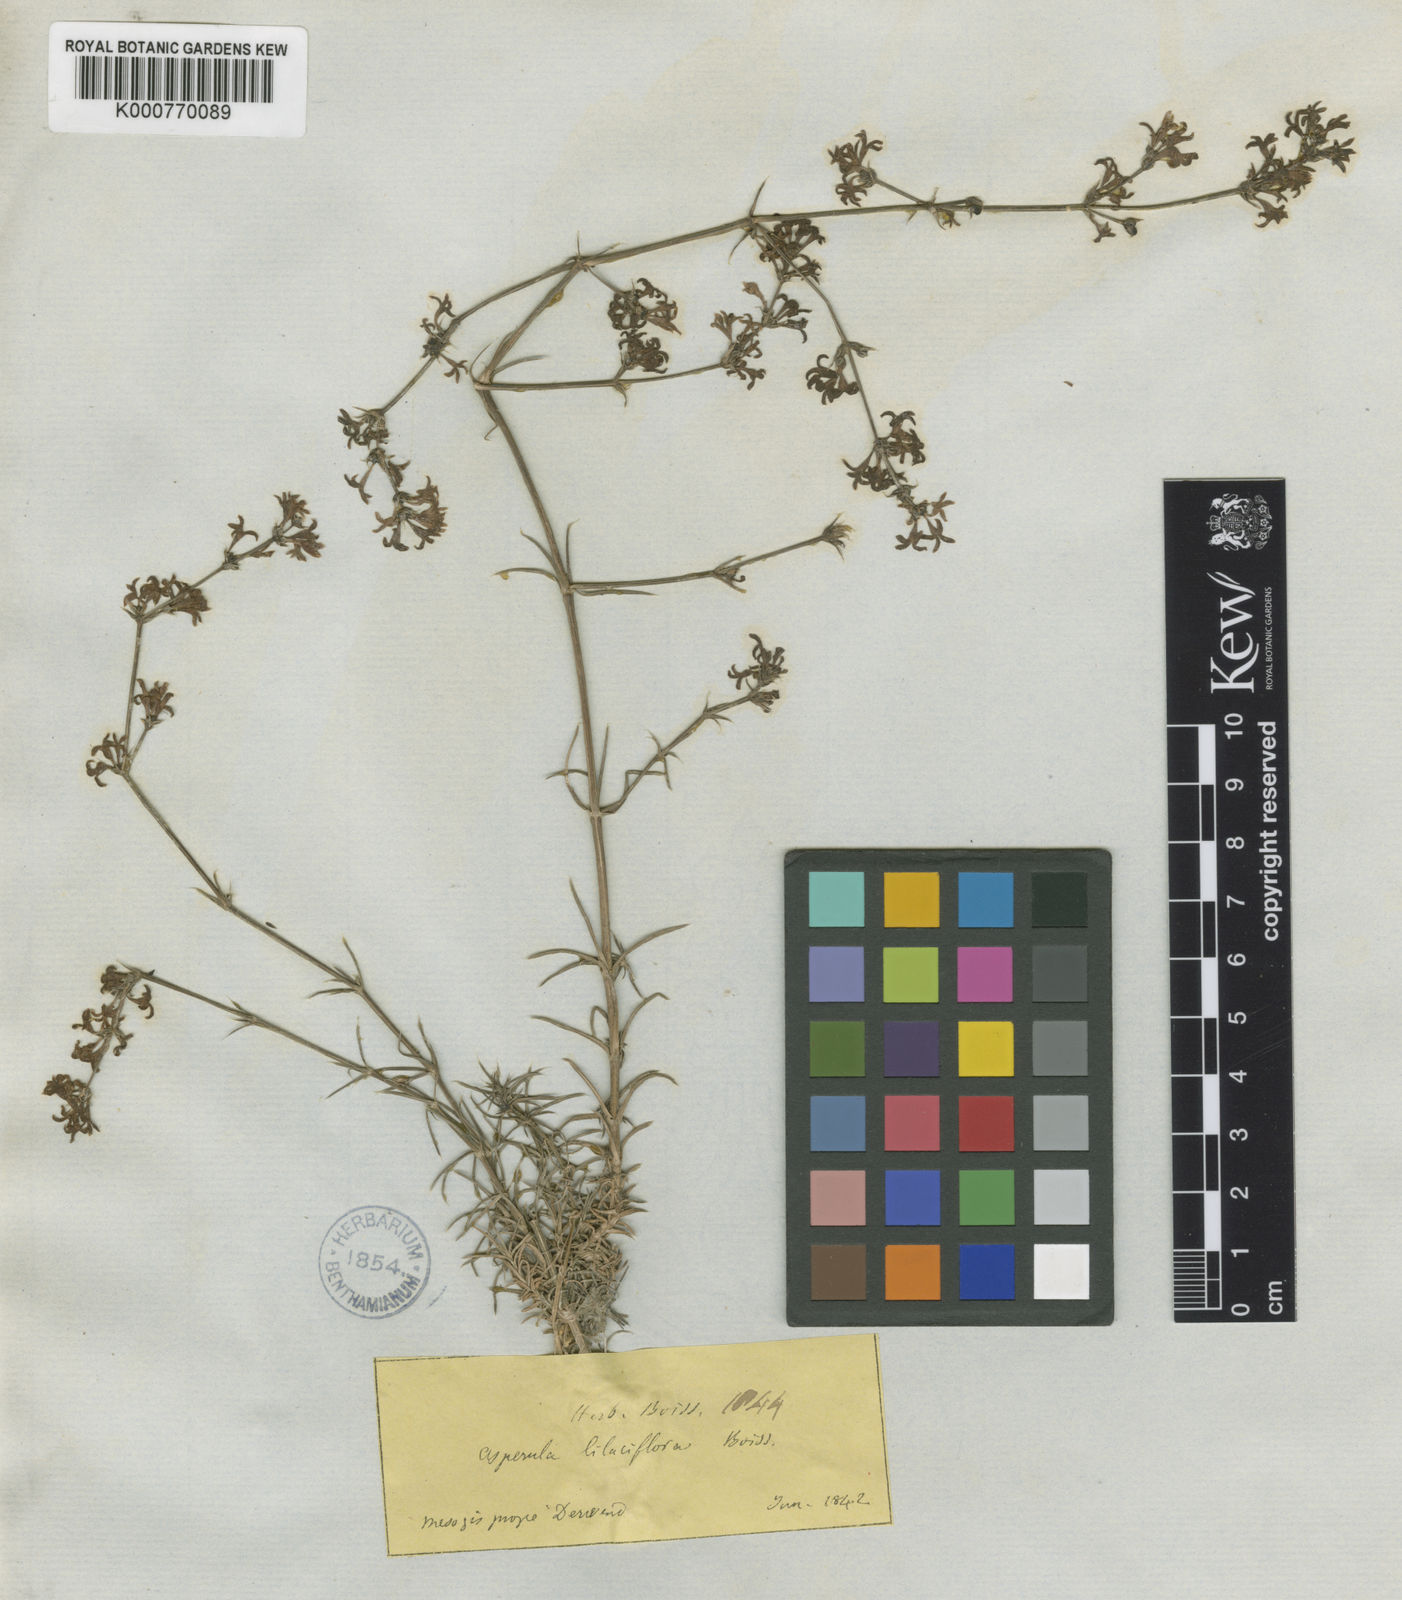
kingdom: Plantae
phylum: Tracheophyta
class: Magnoliopsida
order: Gentianales
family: Rubiaceae
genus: Cynanchica
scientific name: Cynanchica lilaciflora
